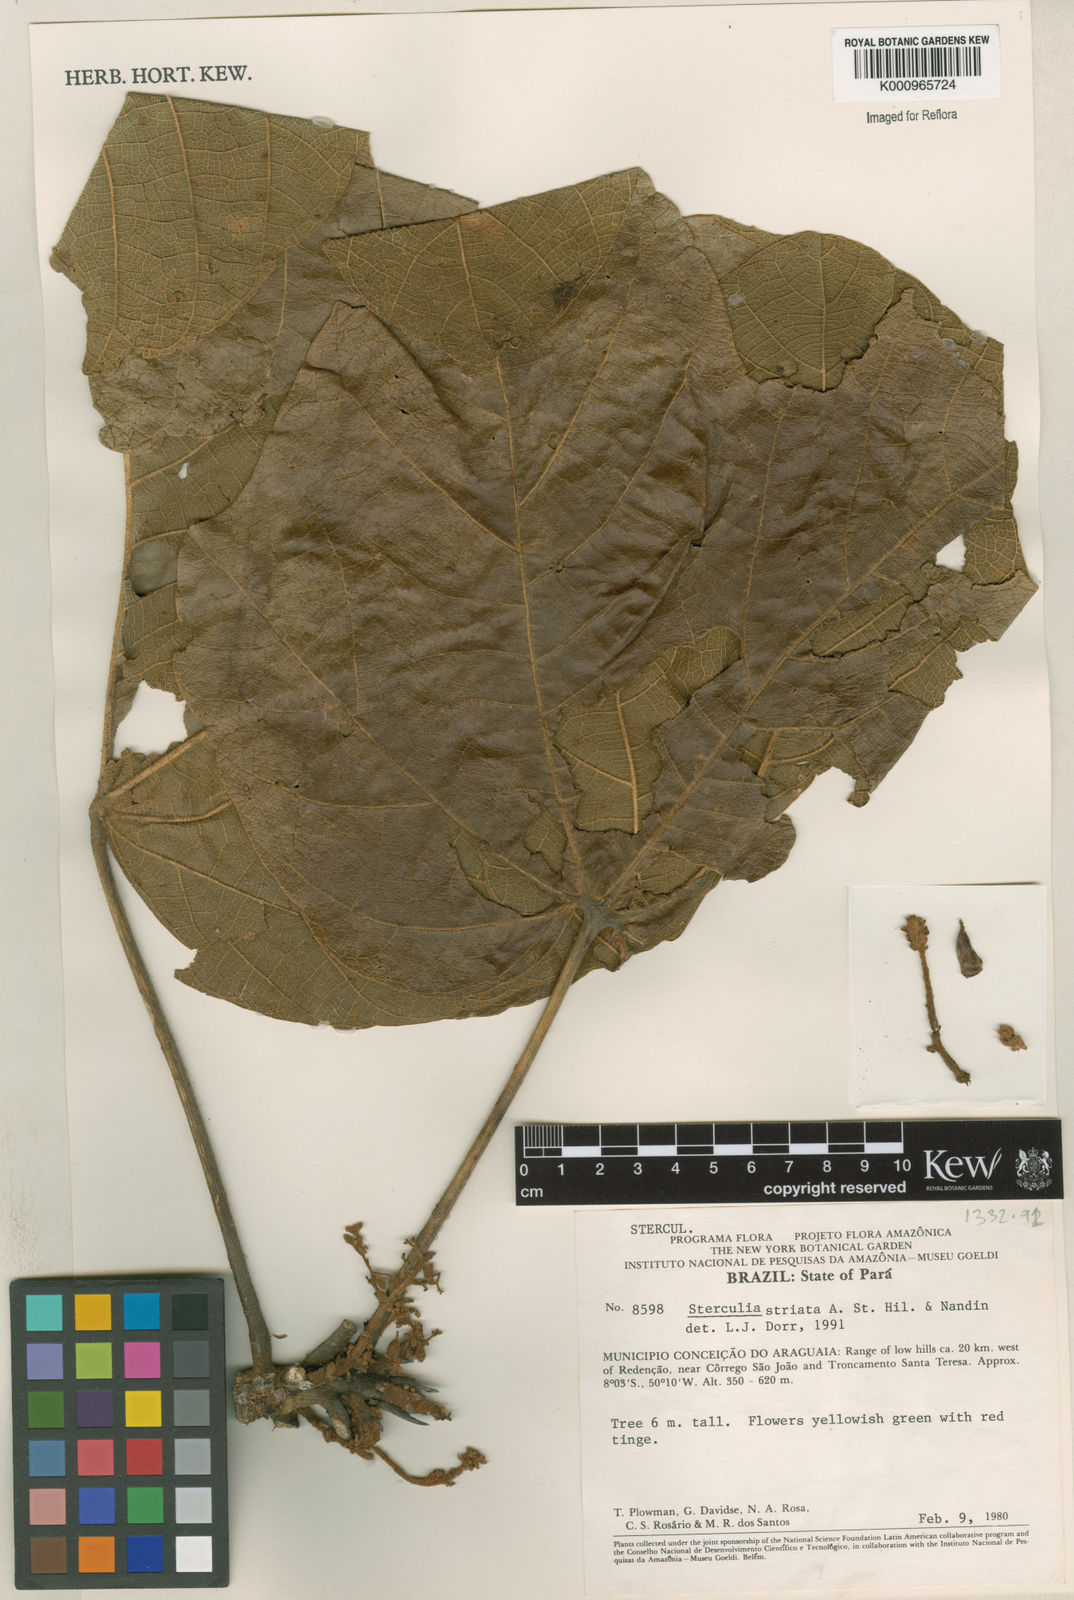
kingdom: Plantae
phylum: Tracheophyta
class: Magnoliopsida
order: Malvales
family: Malvaceae
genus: Sterculia
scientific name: Sterculia striata
